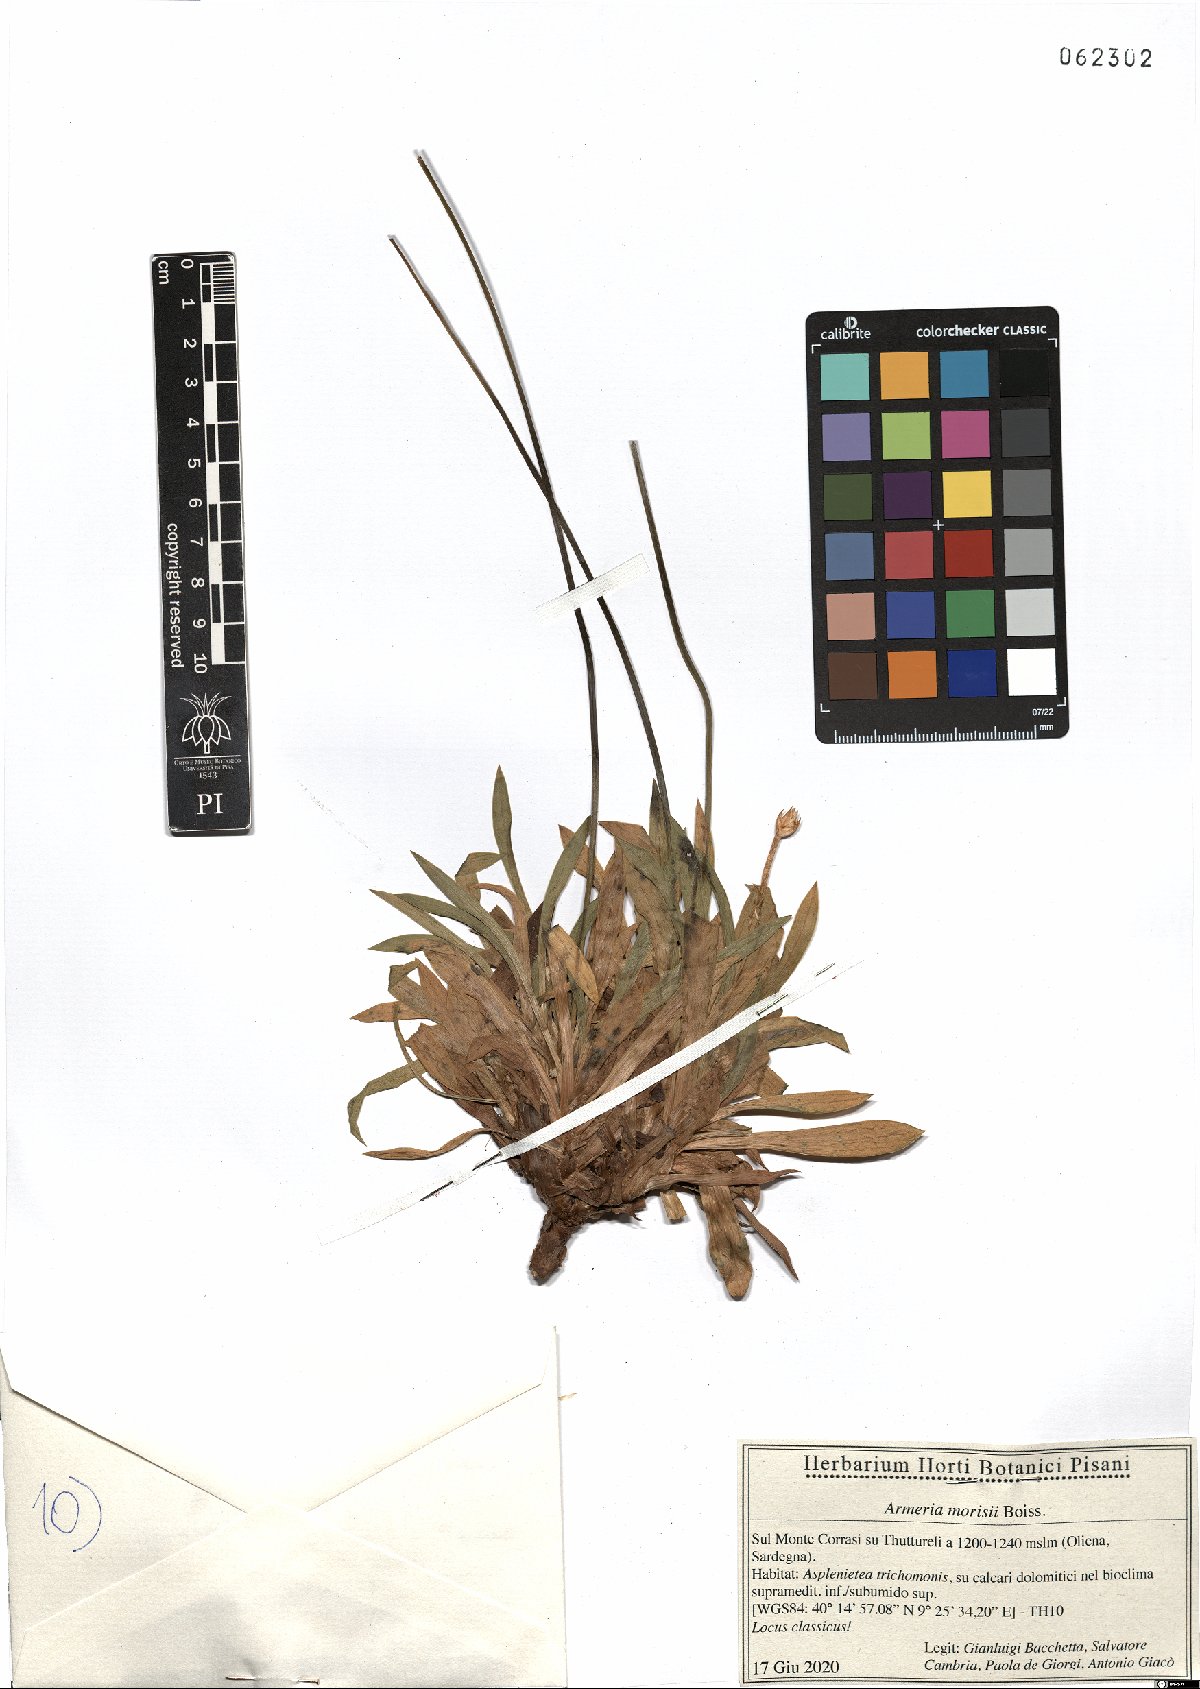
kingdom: Plantae
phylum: Tracheophyta
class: Magnoliopsida
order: Caryophyllales
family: Plumbaginaceae
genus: Armeria
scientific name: Armeria morisii
